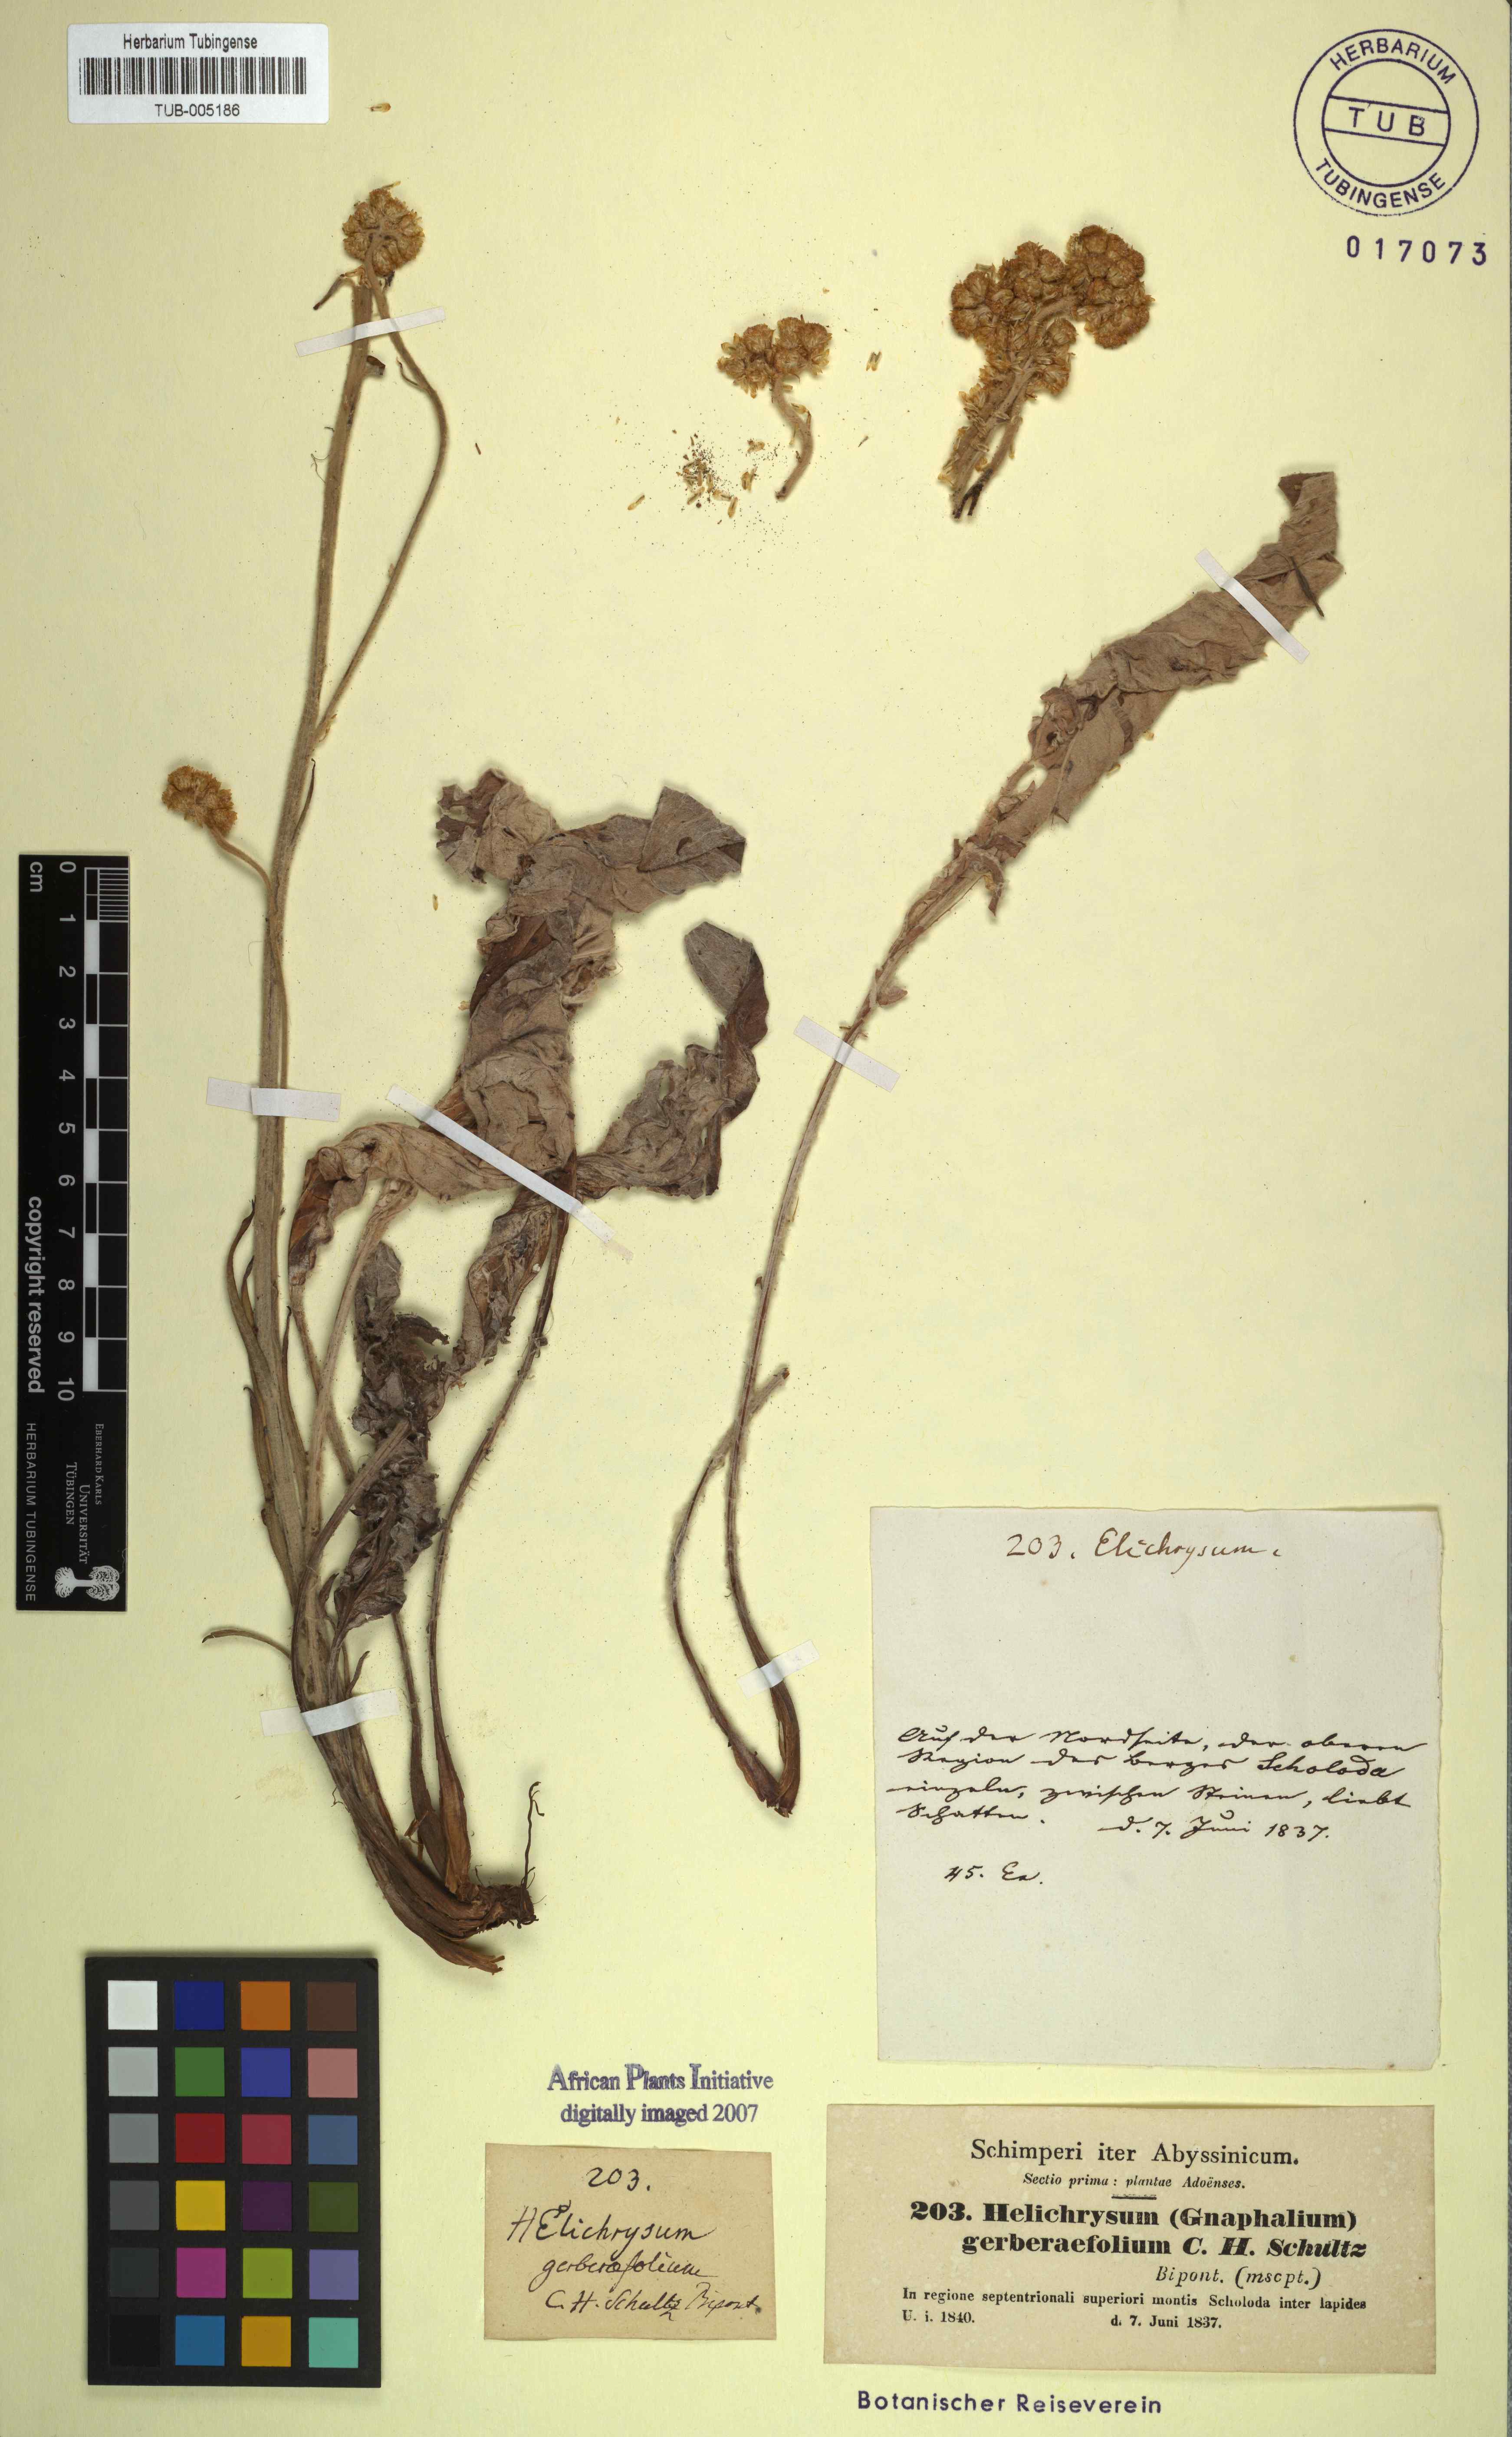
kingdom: Plantae
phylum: Tracheophyta
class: Magnoliopsida
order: Asterales
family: Asteraceae
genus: Helichrysum
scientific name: Helichrysum gerberaefolium
